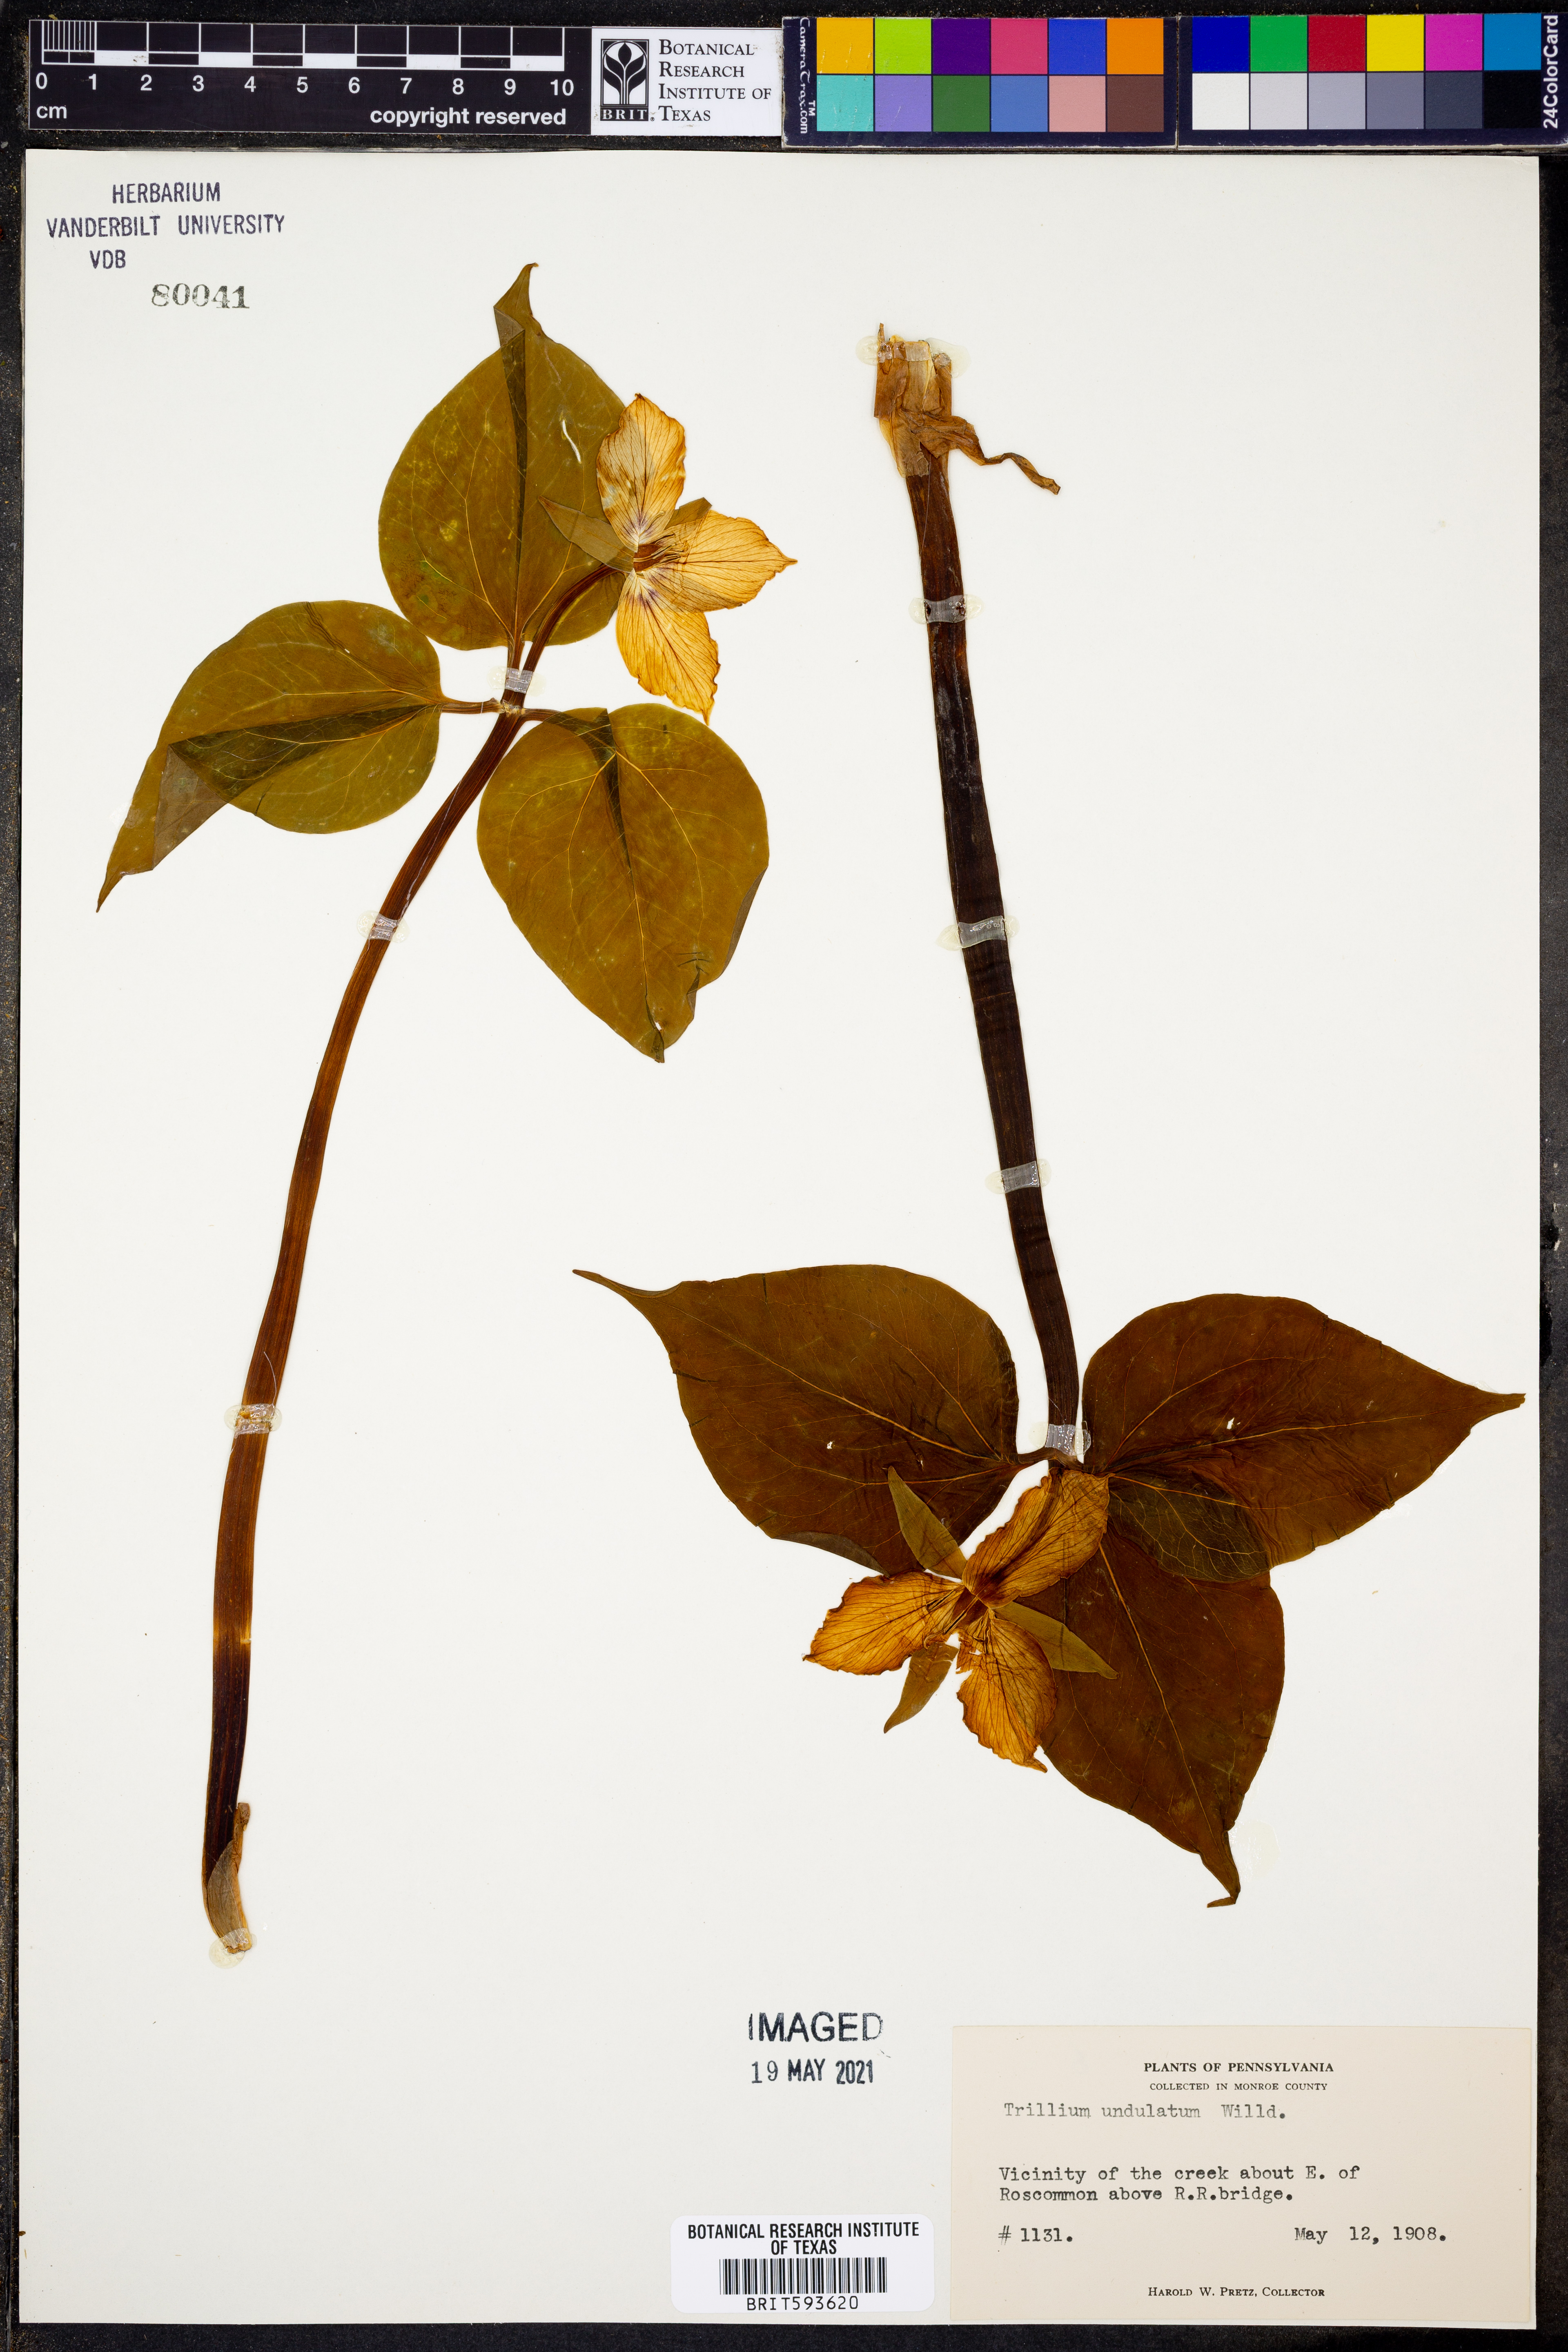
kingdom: Plantae
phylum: Tracheophyta
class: Liliopsida
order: Liliales
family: Melanthiaceae
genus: Trillium
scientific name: Trillium undulatum
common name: Paint trillium
